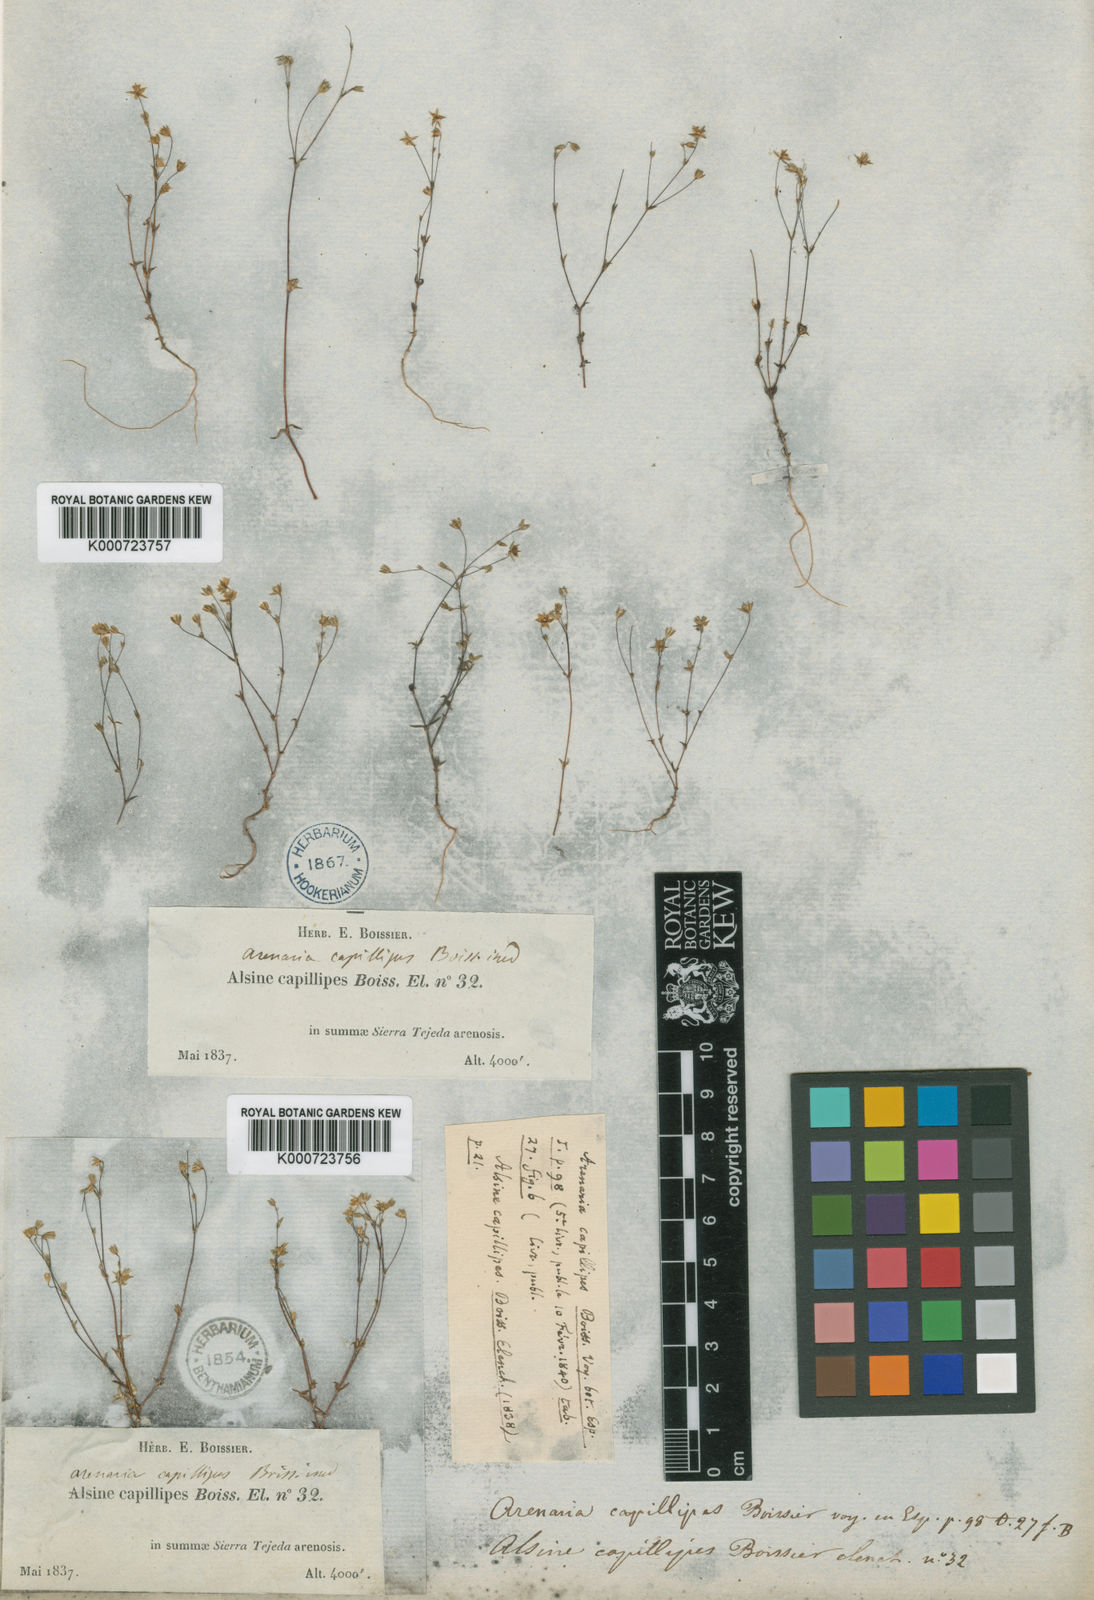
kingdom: Plantae
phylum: Tracheophyta
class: Magnoliopsida
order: Caryophyllales
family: Caryophyllaceae
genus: Arenaria
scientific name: Arenaria capillipes
